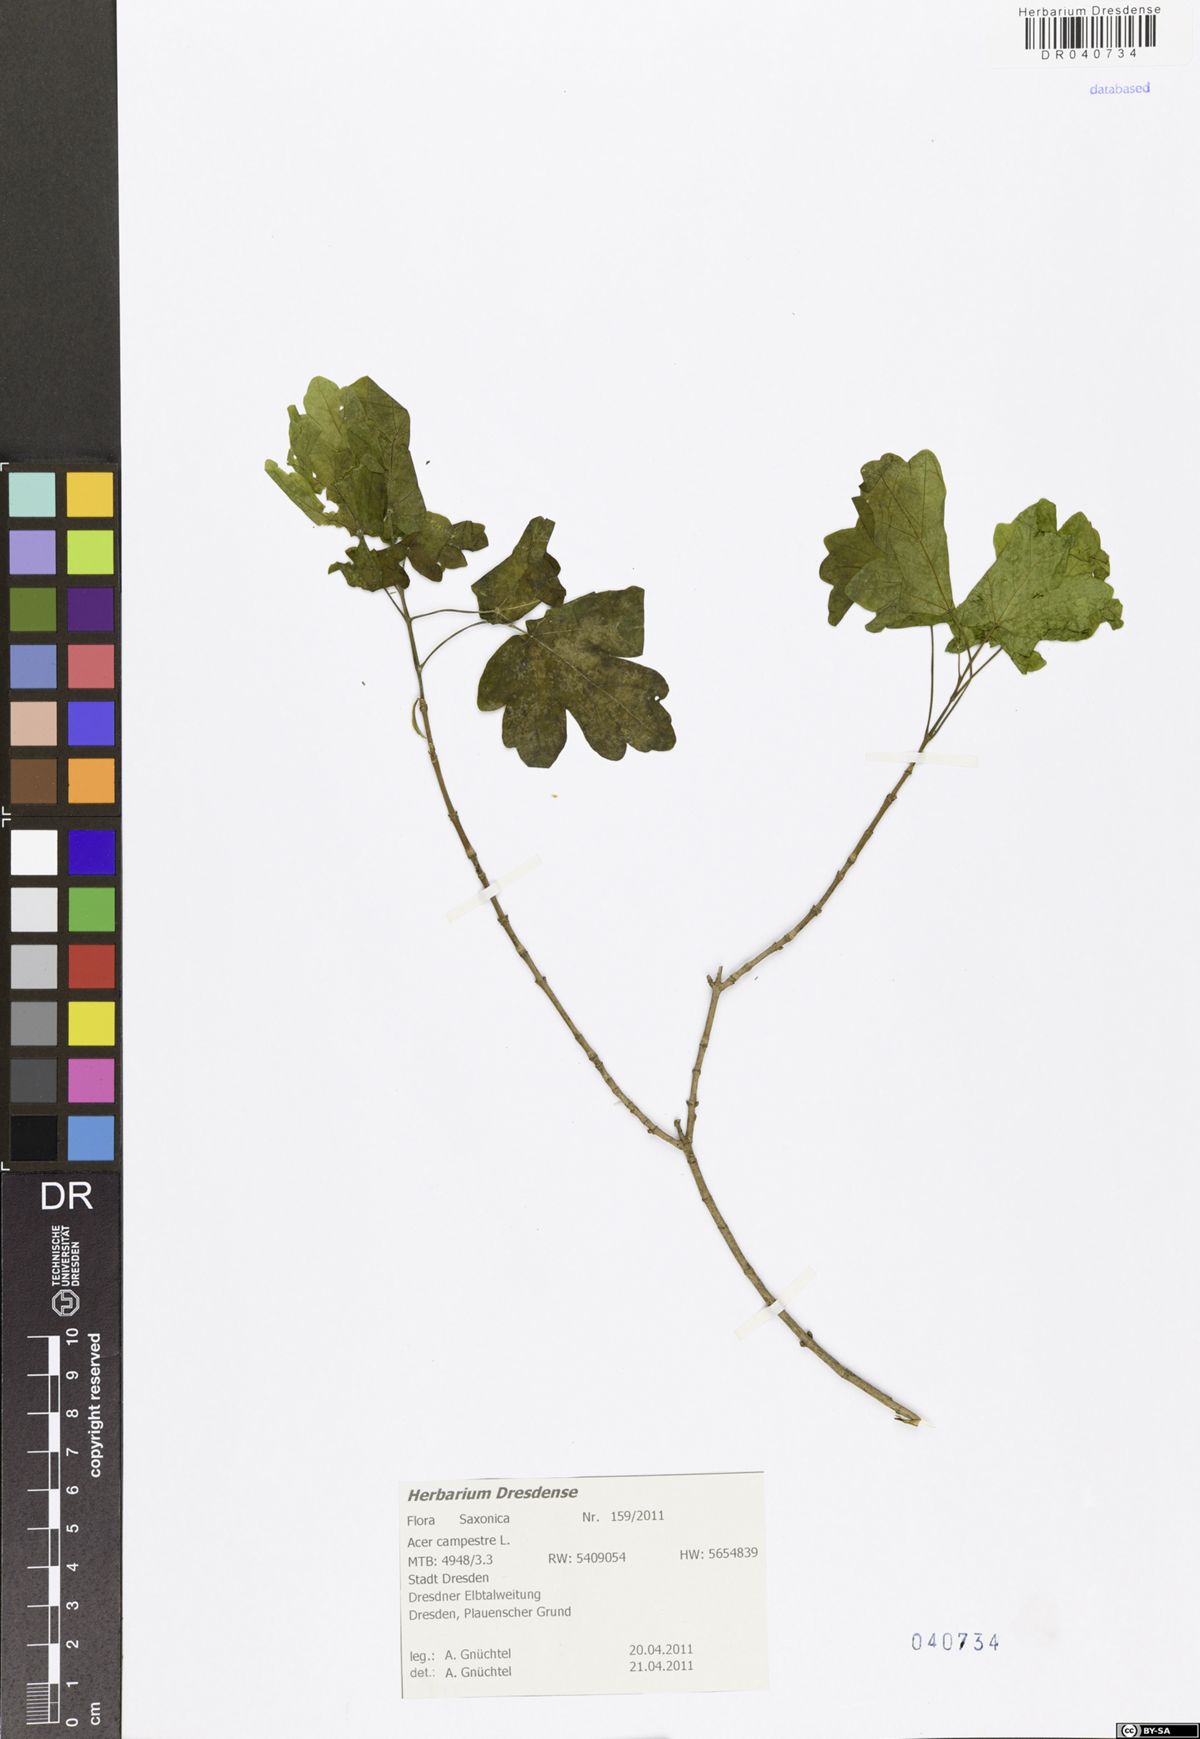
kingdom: Plantae
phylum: Tracheophyta
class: Magnoliopsida
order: Sapindales
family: Sapindaceae
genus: Acer
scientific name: Acer campestre
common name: Field maple
